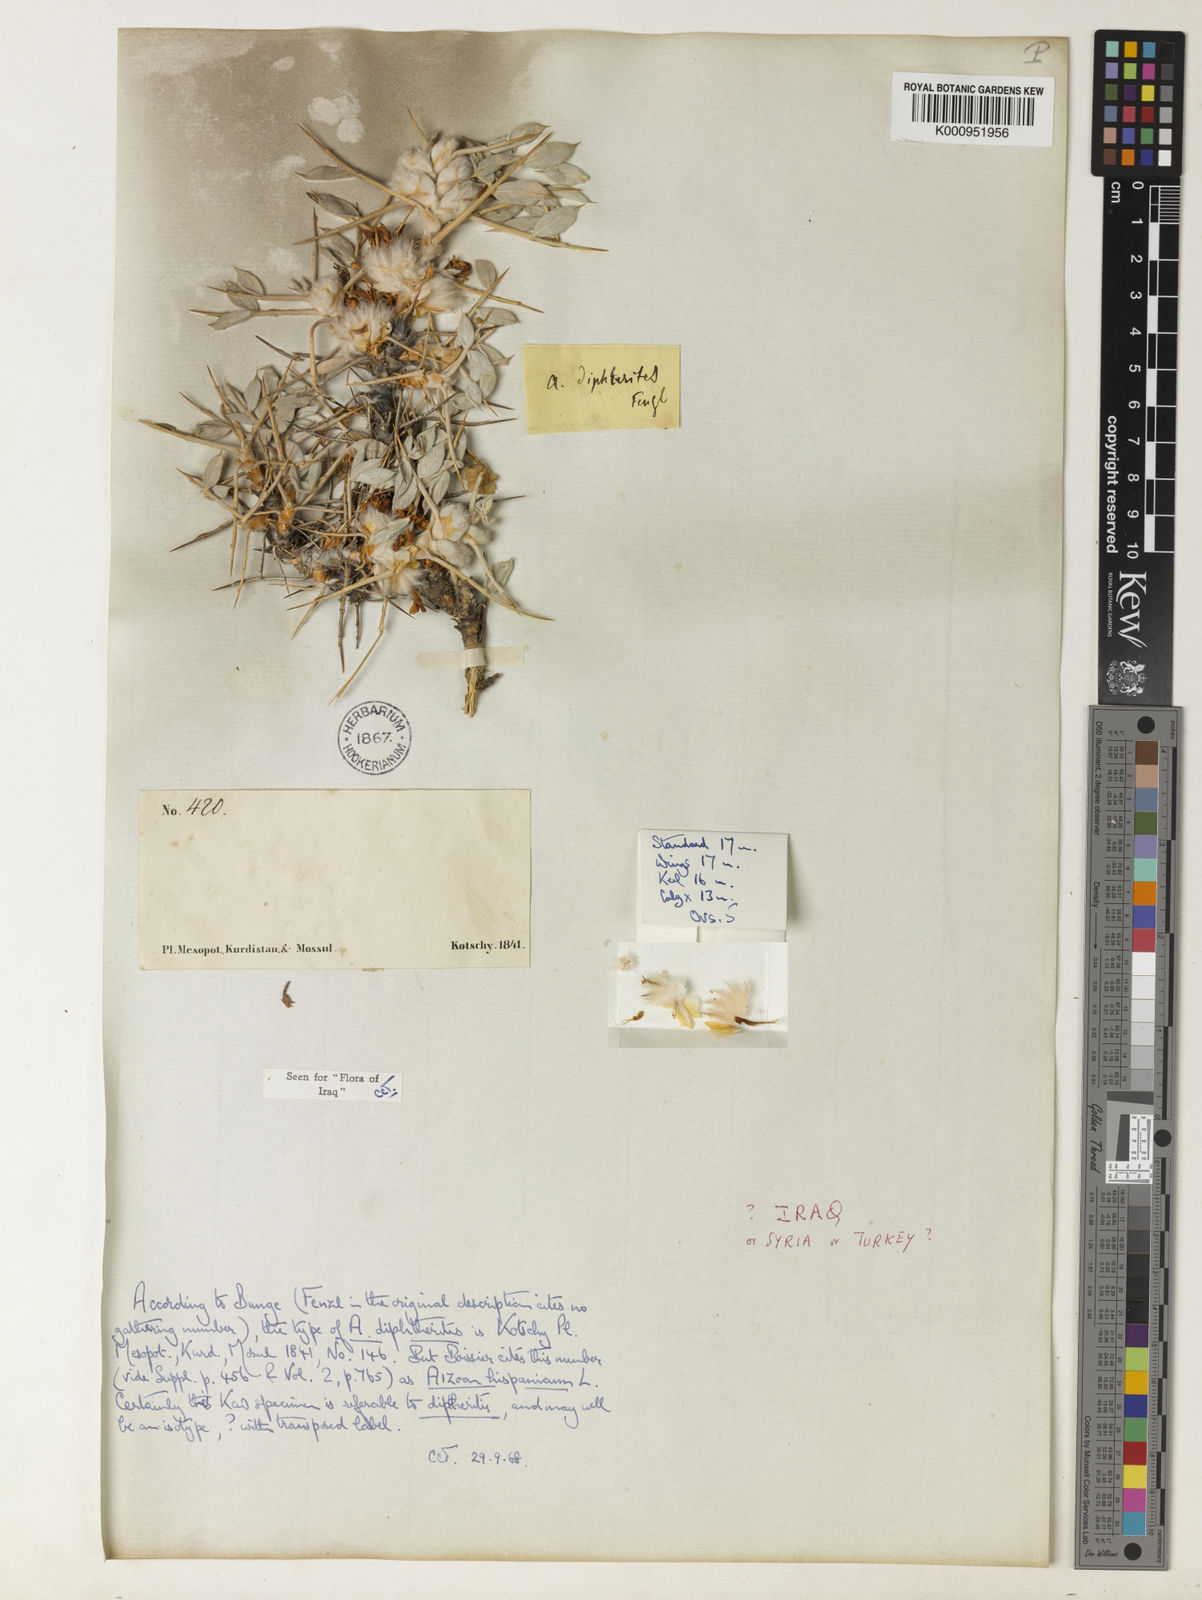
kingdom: Plantae
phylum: Tracheophyta
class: Magnoliopsida
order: Fabales
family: Fabaceae
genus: Astragalus
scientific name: Astragalus diphtherites
